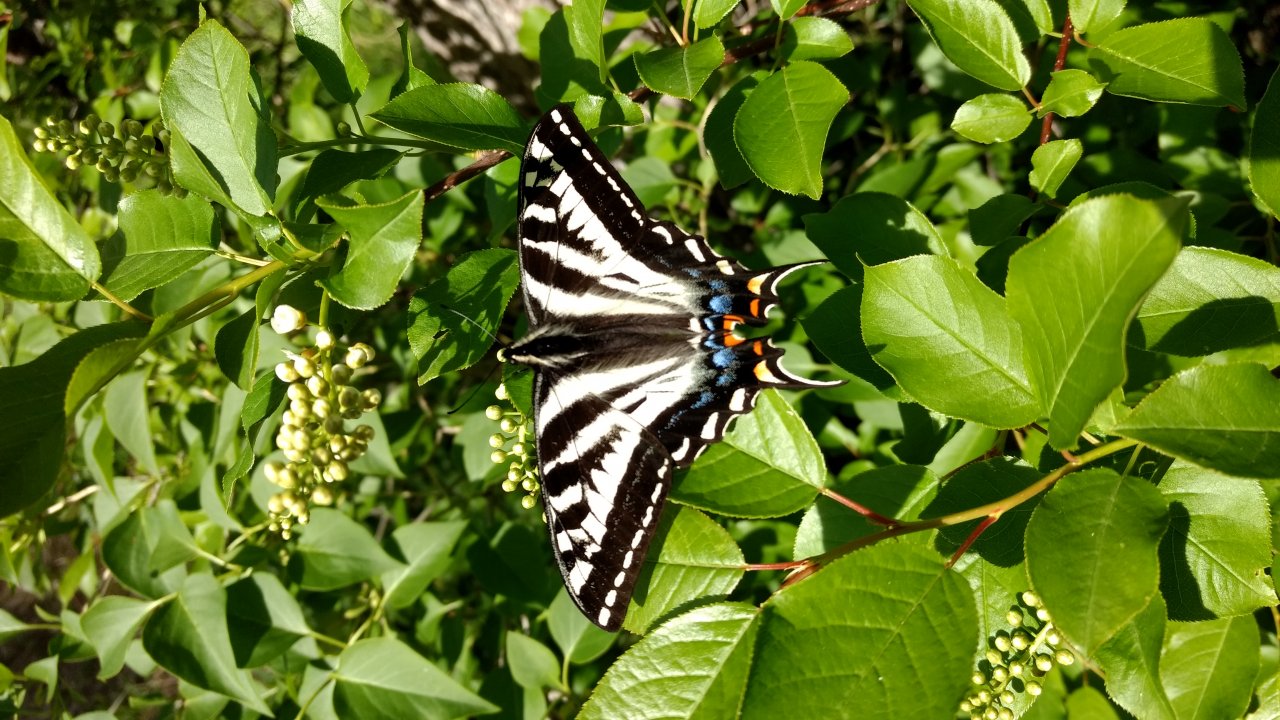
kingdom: Animalia
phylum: Arthropoda
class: Insecta
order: Lepidoptera
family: Papilionidae
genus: Pterourus
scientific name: Pterourus eurymedon
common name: Pale Swallowtail
